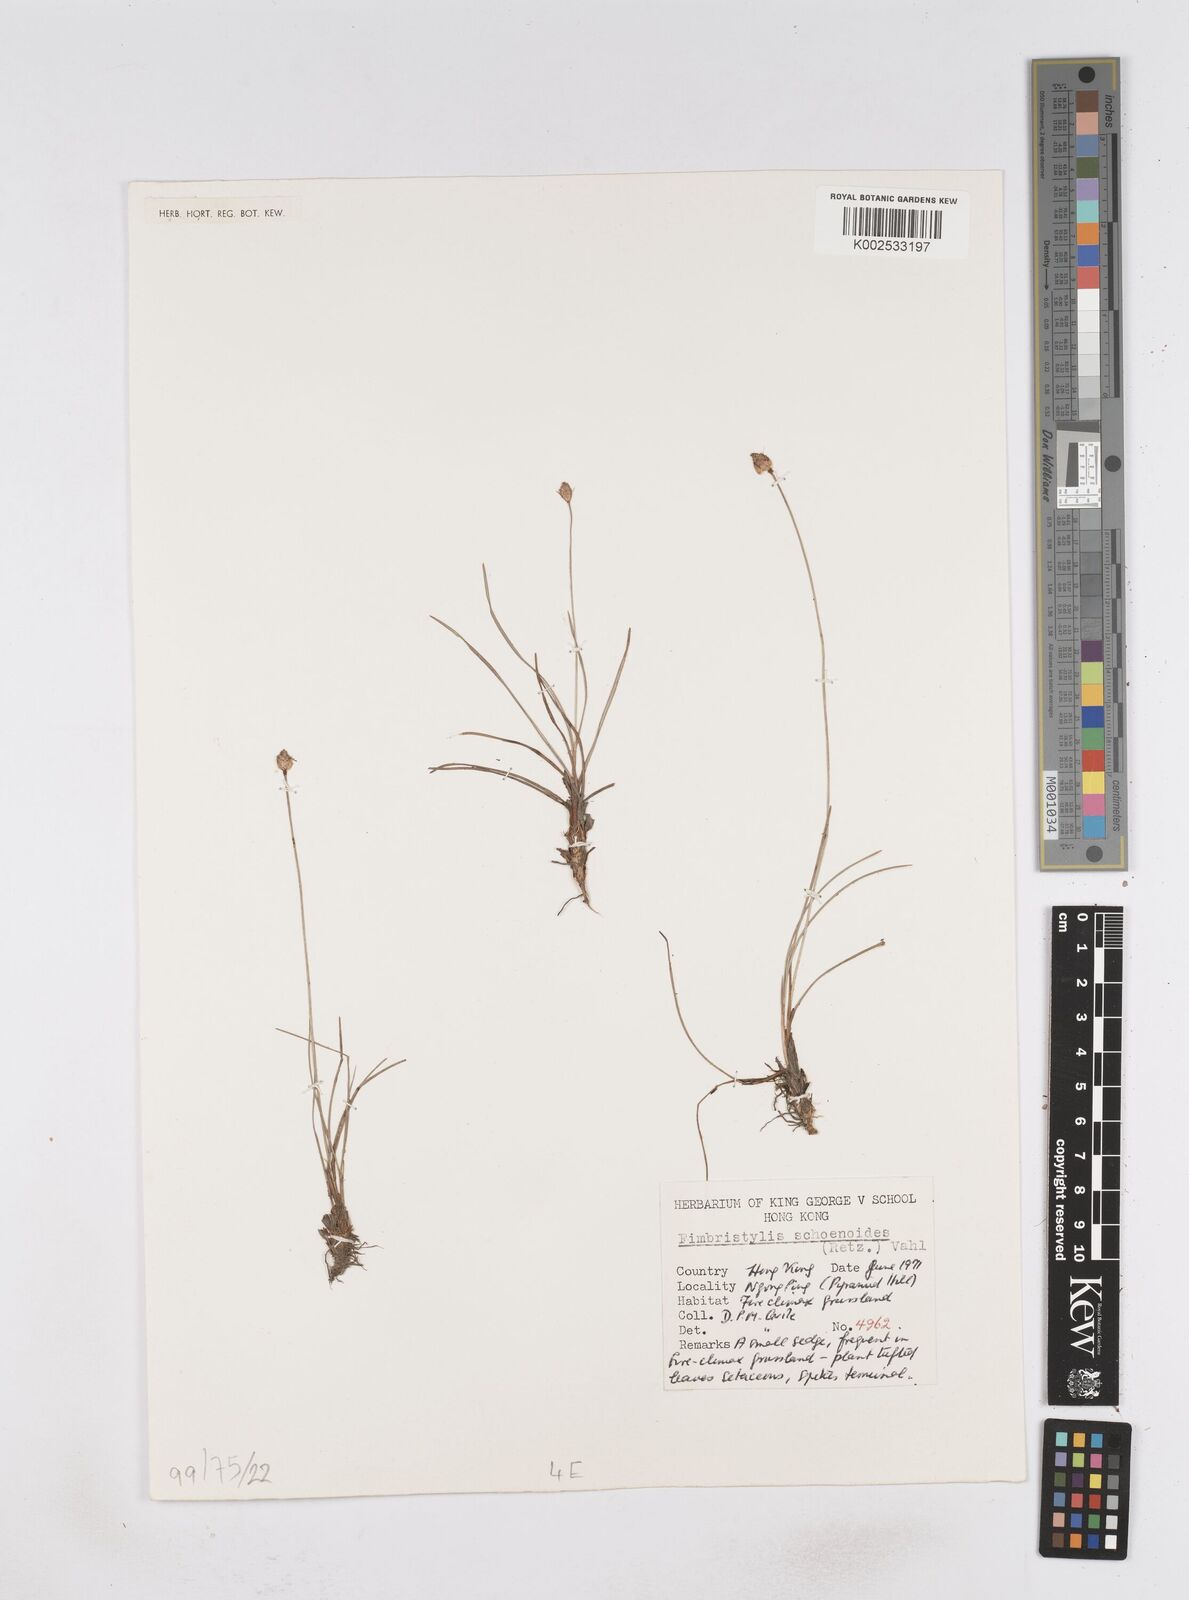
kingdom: Plantae
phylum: Tracheophyta
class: Liliopsida
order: Poales
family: Cyperaceae
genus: Fimbristylis
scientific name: Fimbristylis schoenoides
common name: Ditch fimbry
